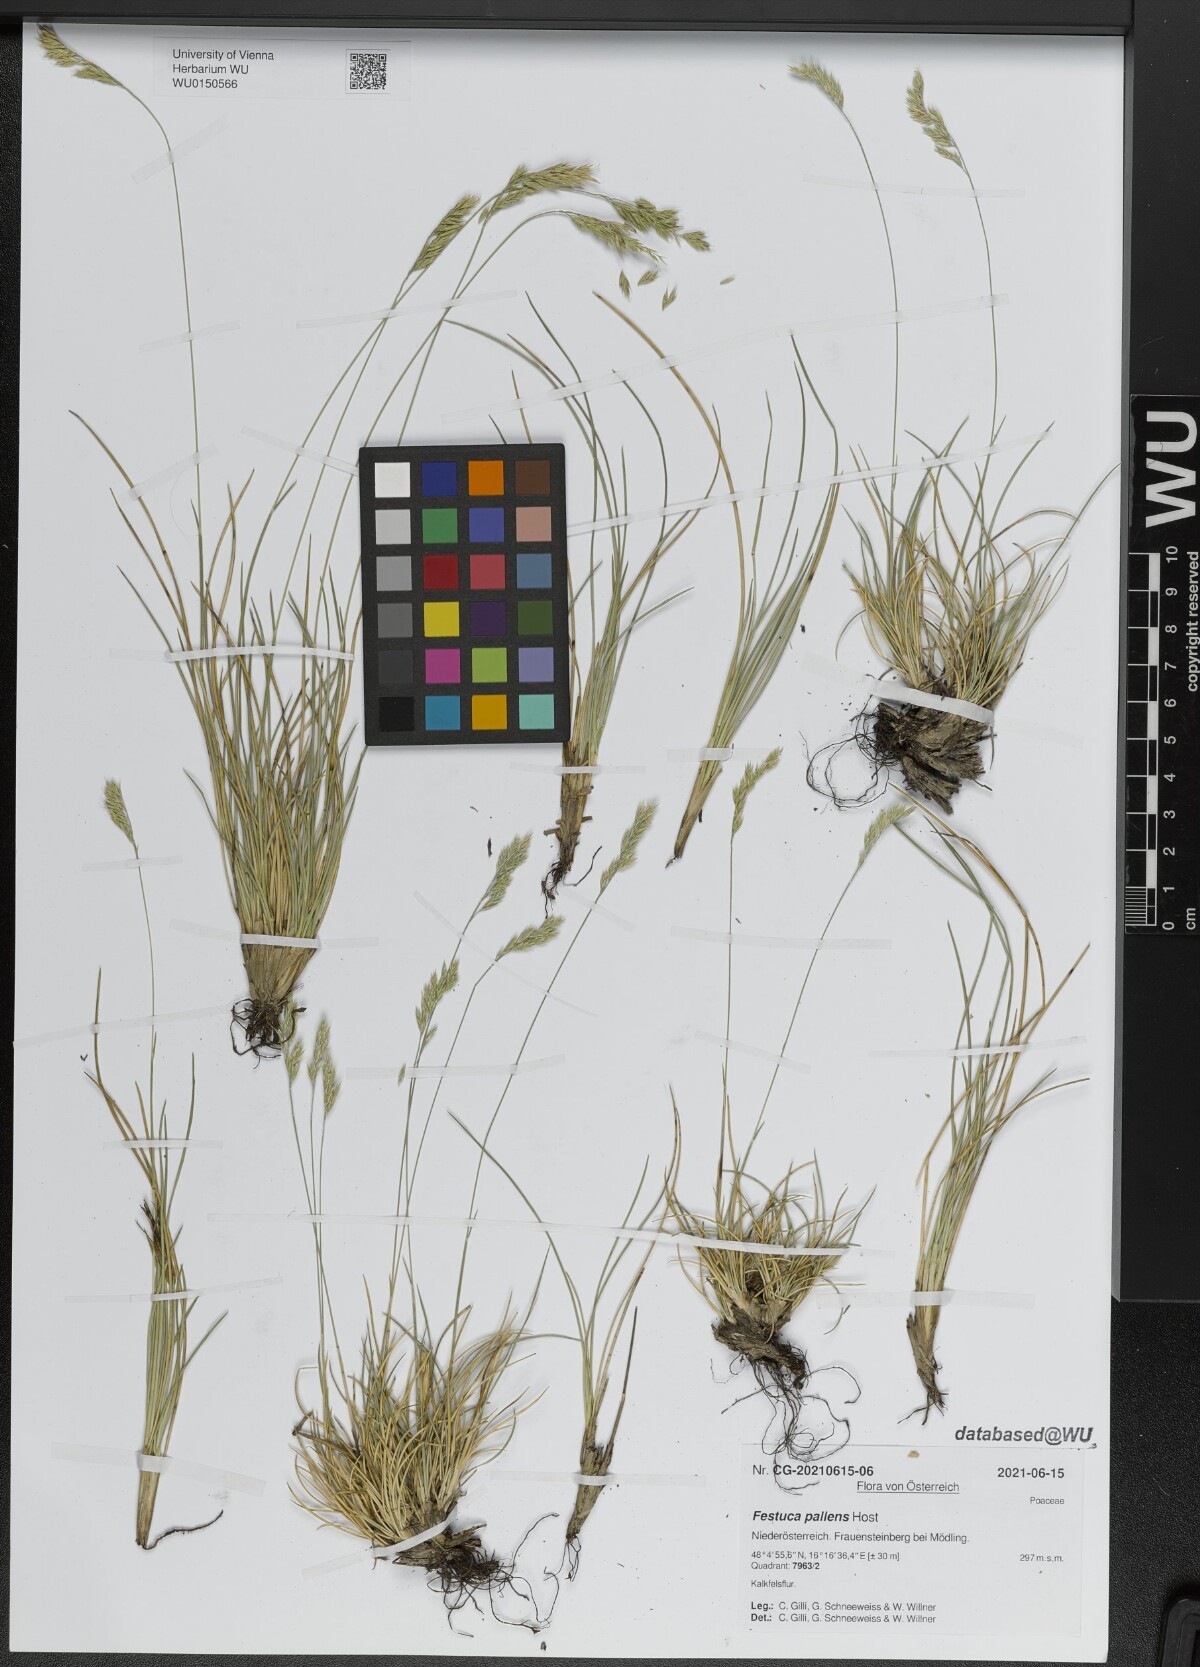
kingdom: Plantae
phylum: Tracheophyta
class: Liliopsida
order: Poales
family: Poaceae
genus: Festuca
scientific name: Festuca pallens
